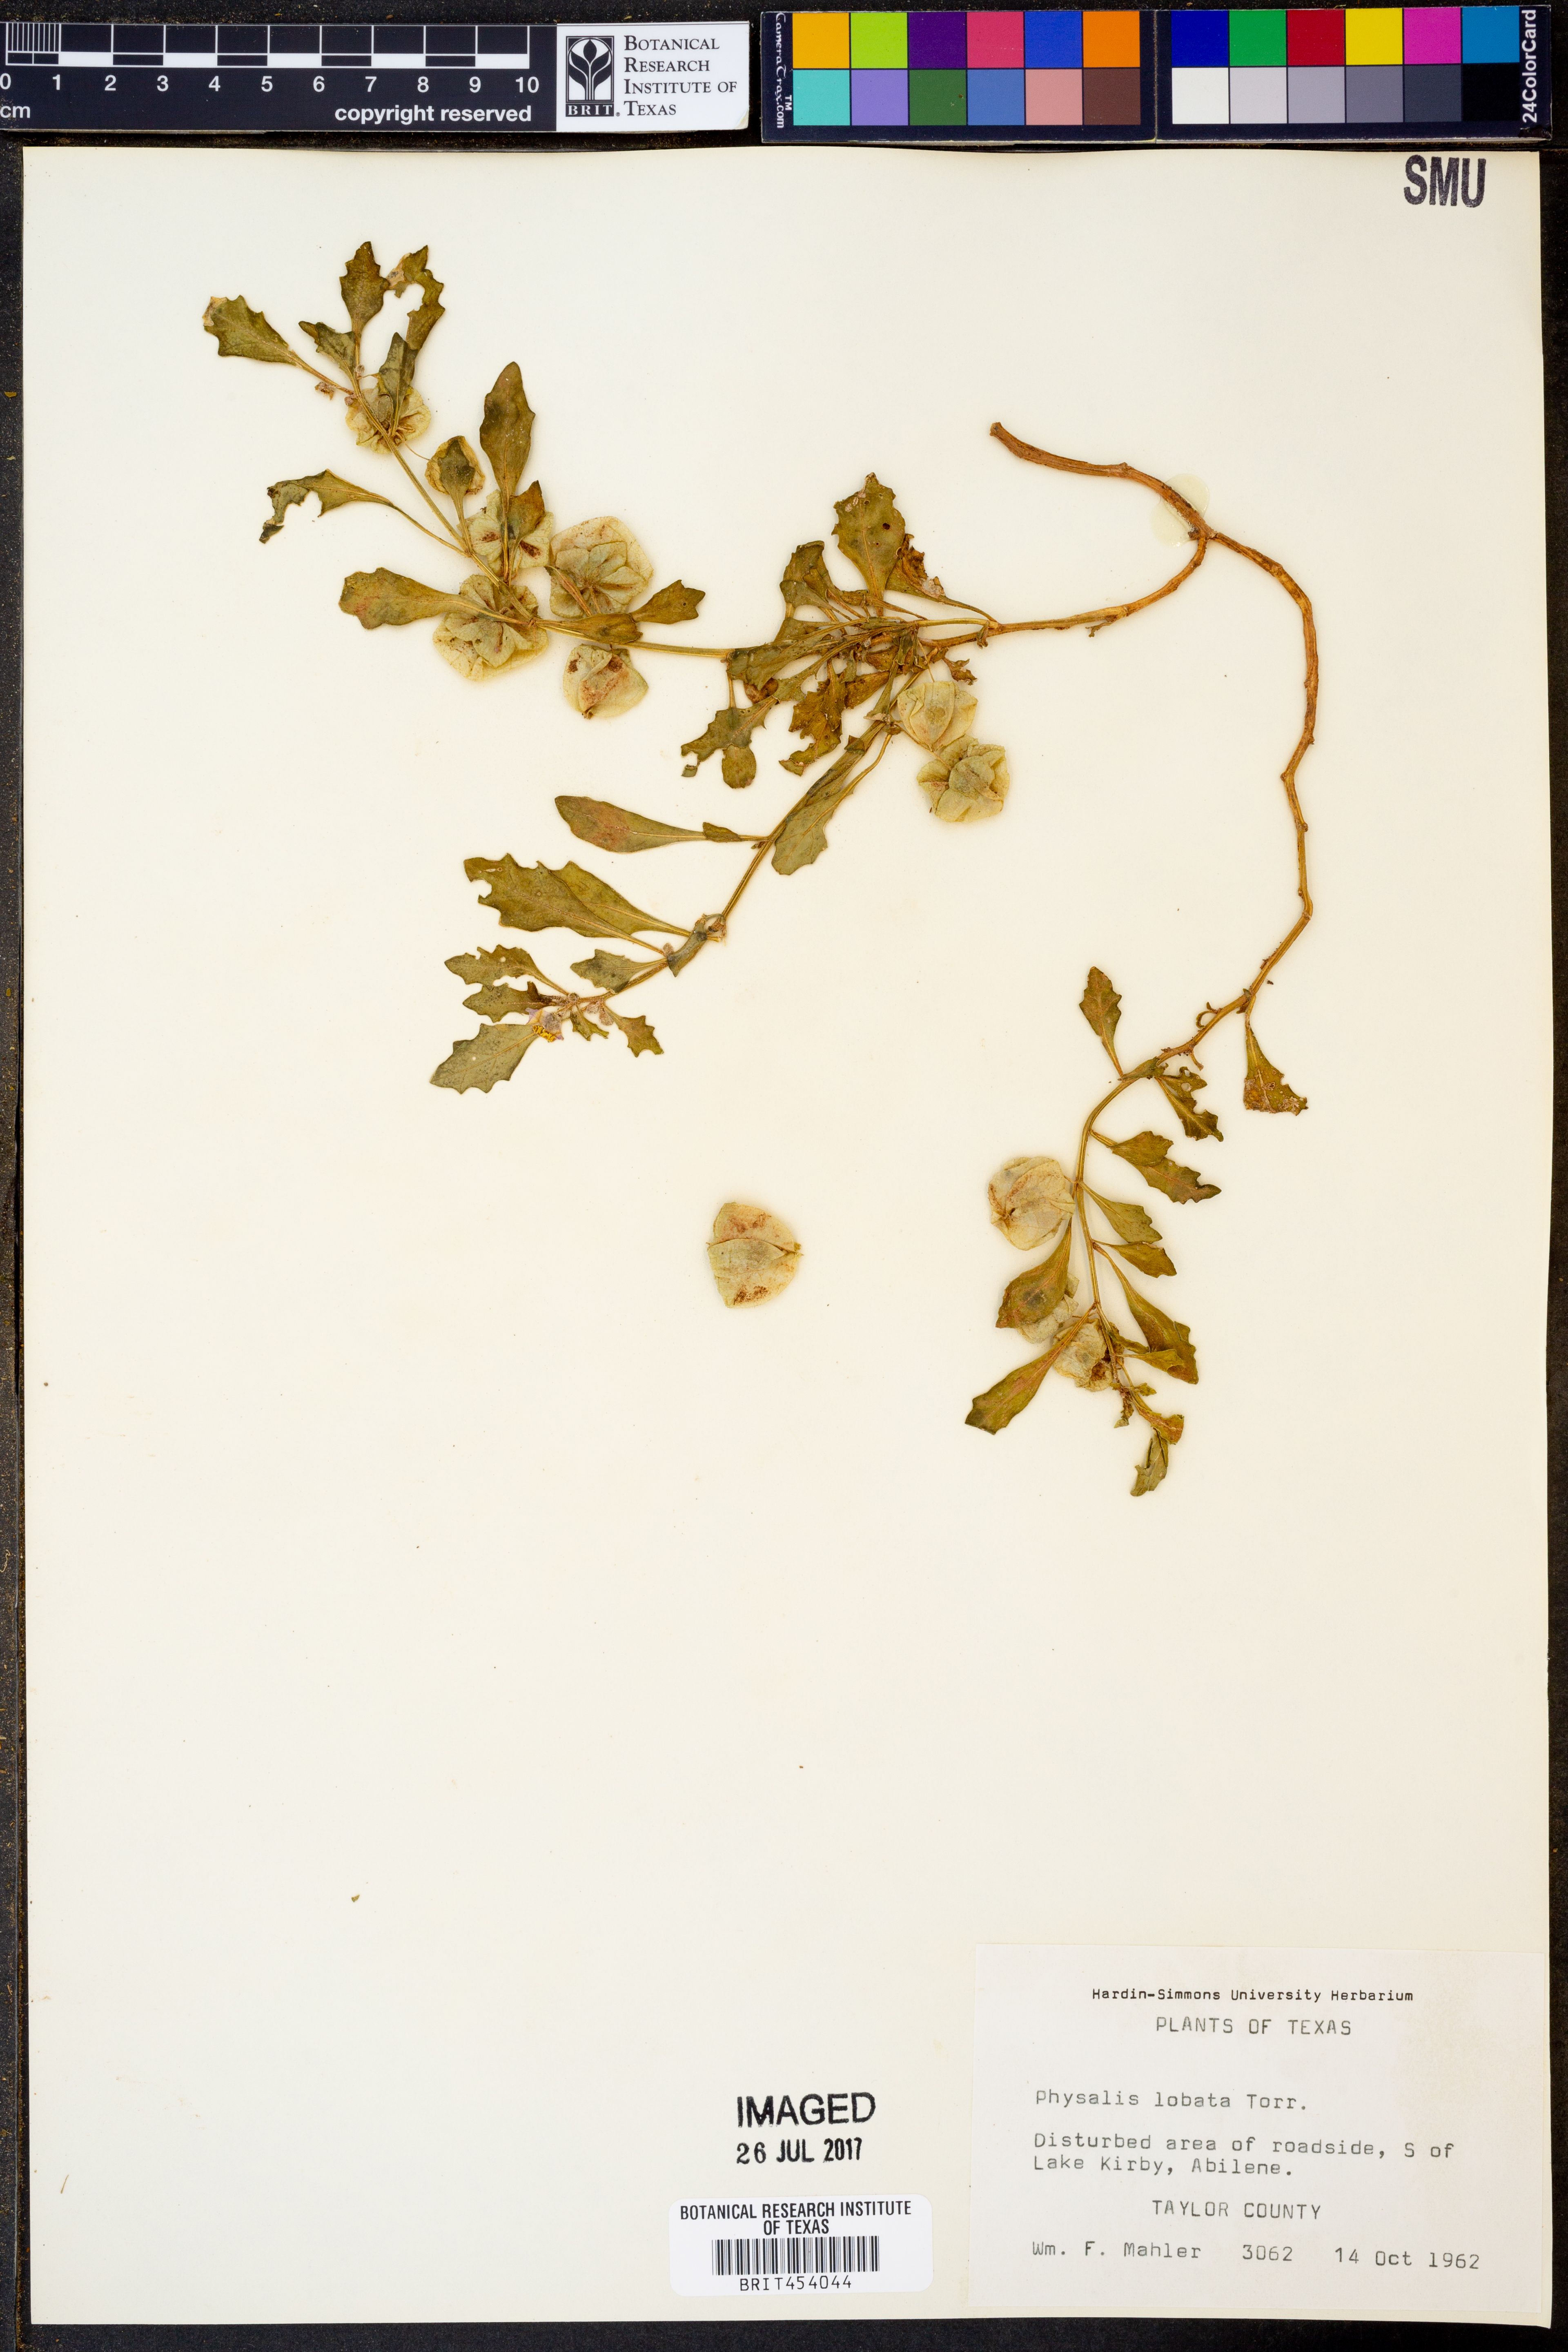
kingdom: Plantae
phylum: Tracheophyta
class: Magnoliopsida
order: Solanales
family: Solanaceae
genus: Quincula
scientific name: Quincula lobata
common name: Purple-ground-cherry
